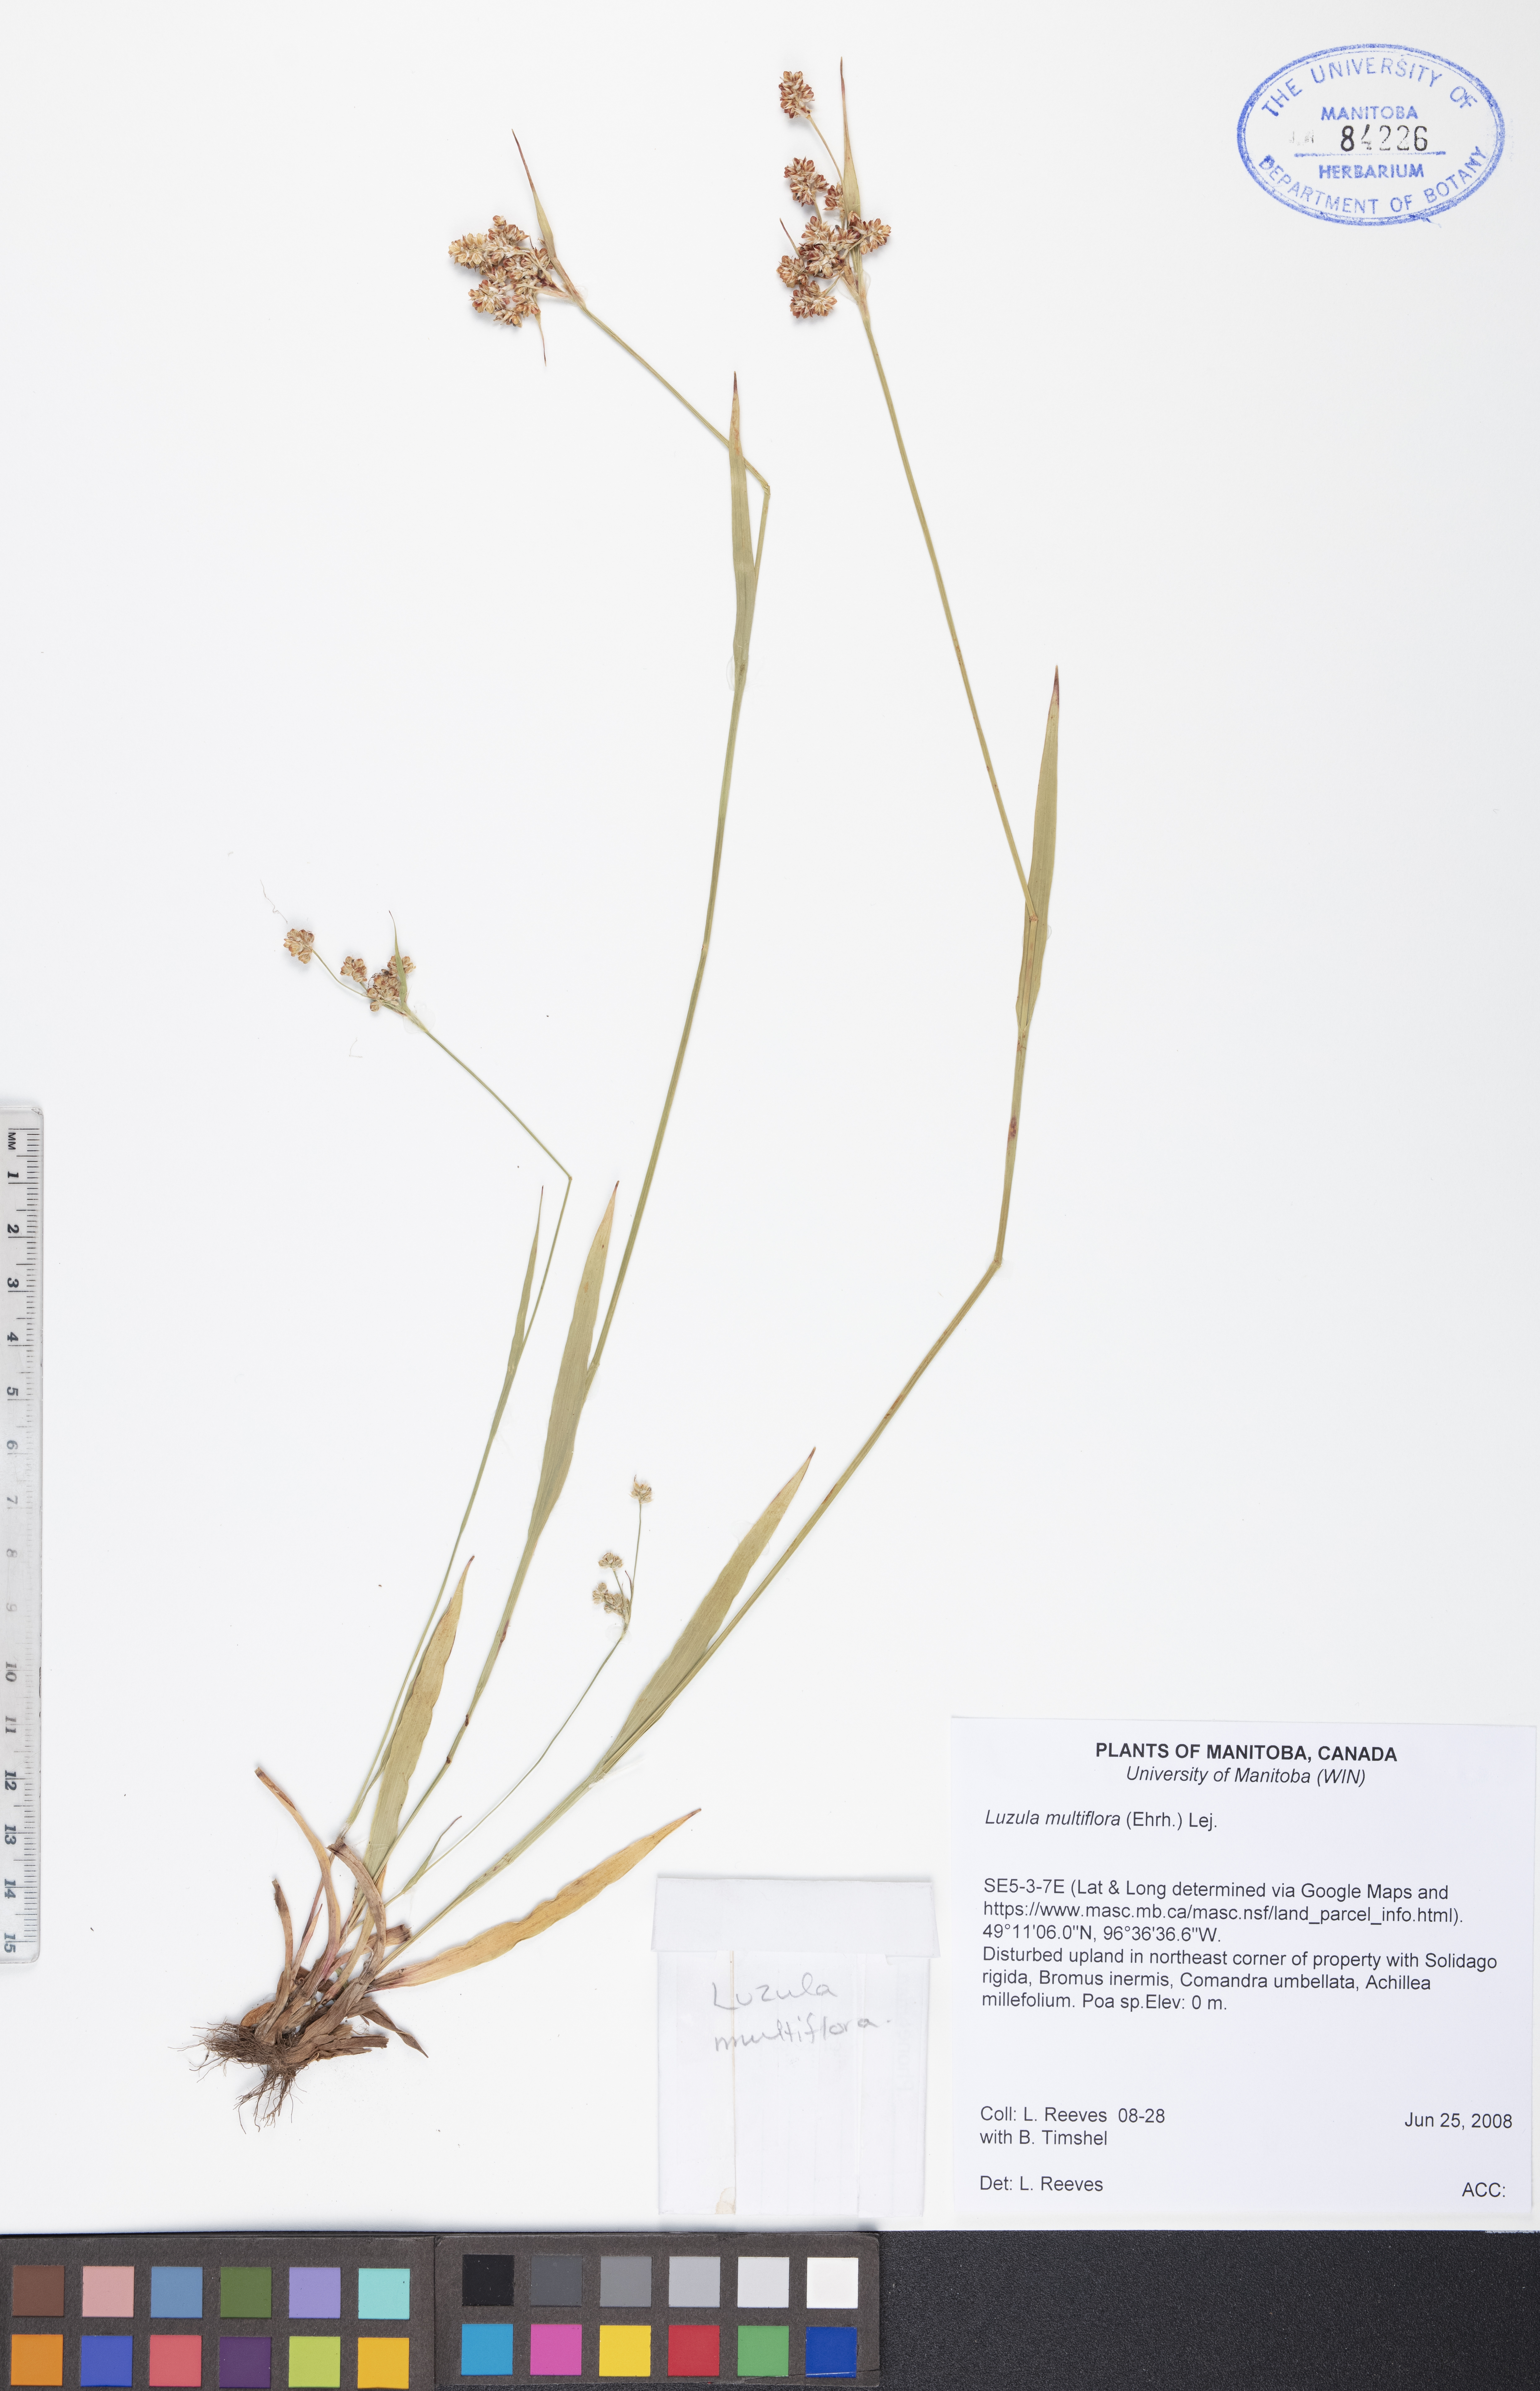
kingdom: Plantae
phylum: Tracheophyta
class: Liliopsida
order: Poales
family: Juncaceae
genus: Luzula
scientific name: Luzula multiflora
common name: Heath wood-rush
